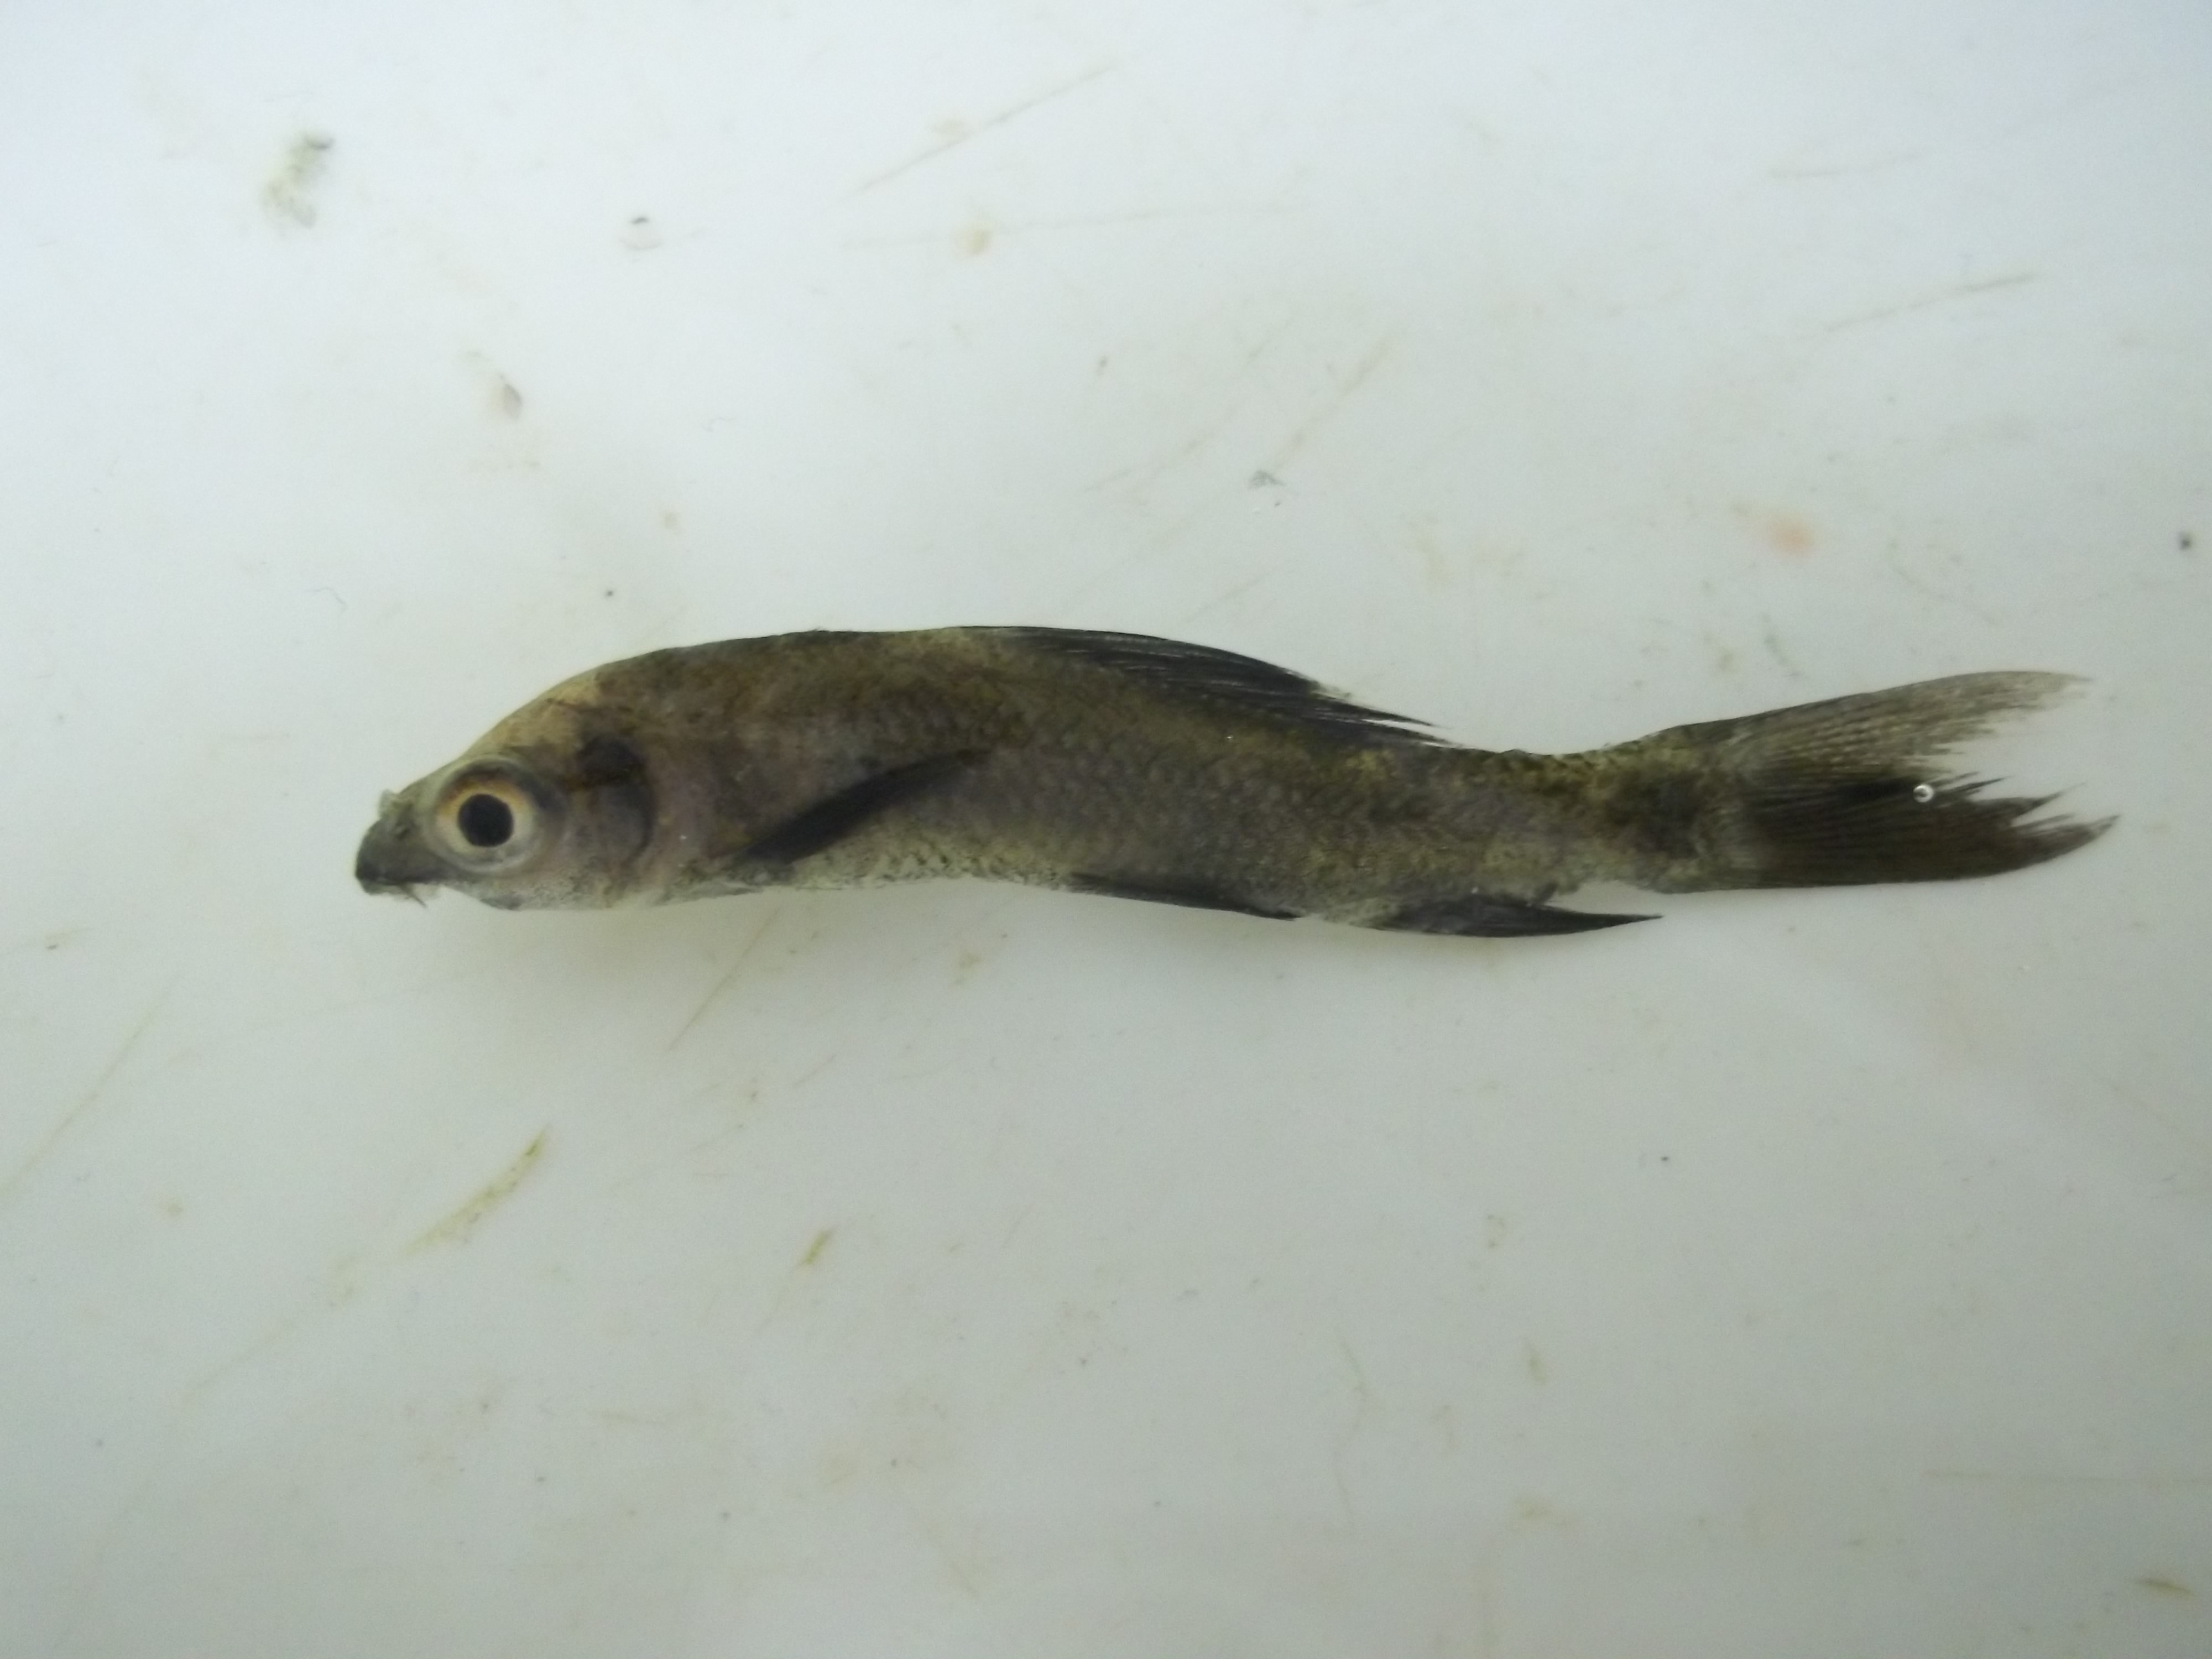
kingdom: Animalia
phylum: Chordata
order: Cypriniformes
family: Cyprinidae
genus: Labeo
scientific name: Labeo chrysophekadion
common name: Black sharkminnow
